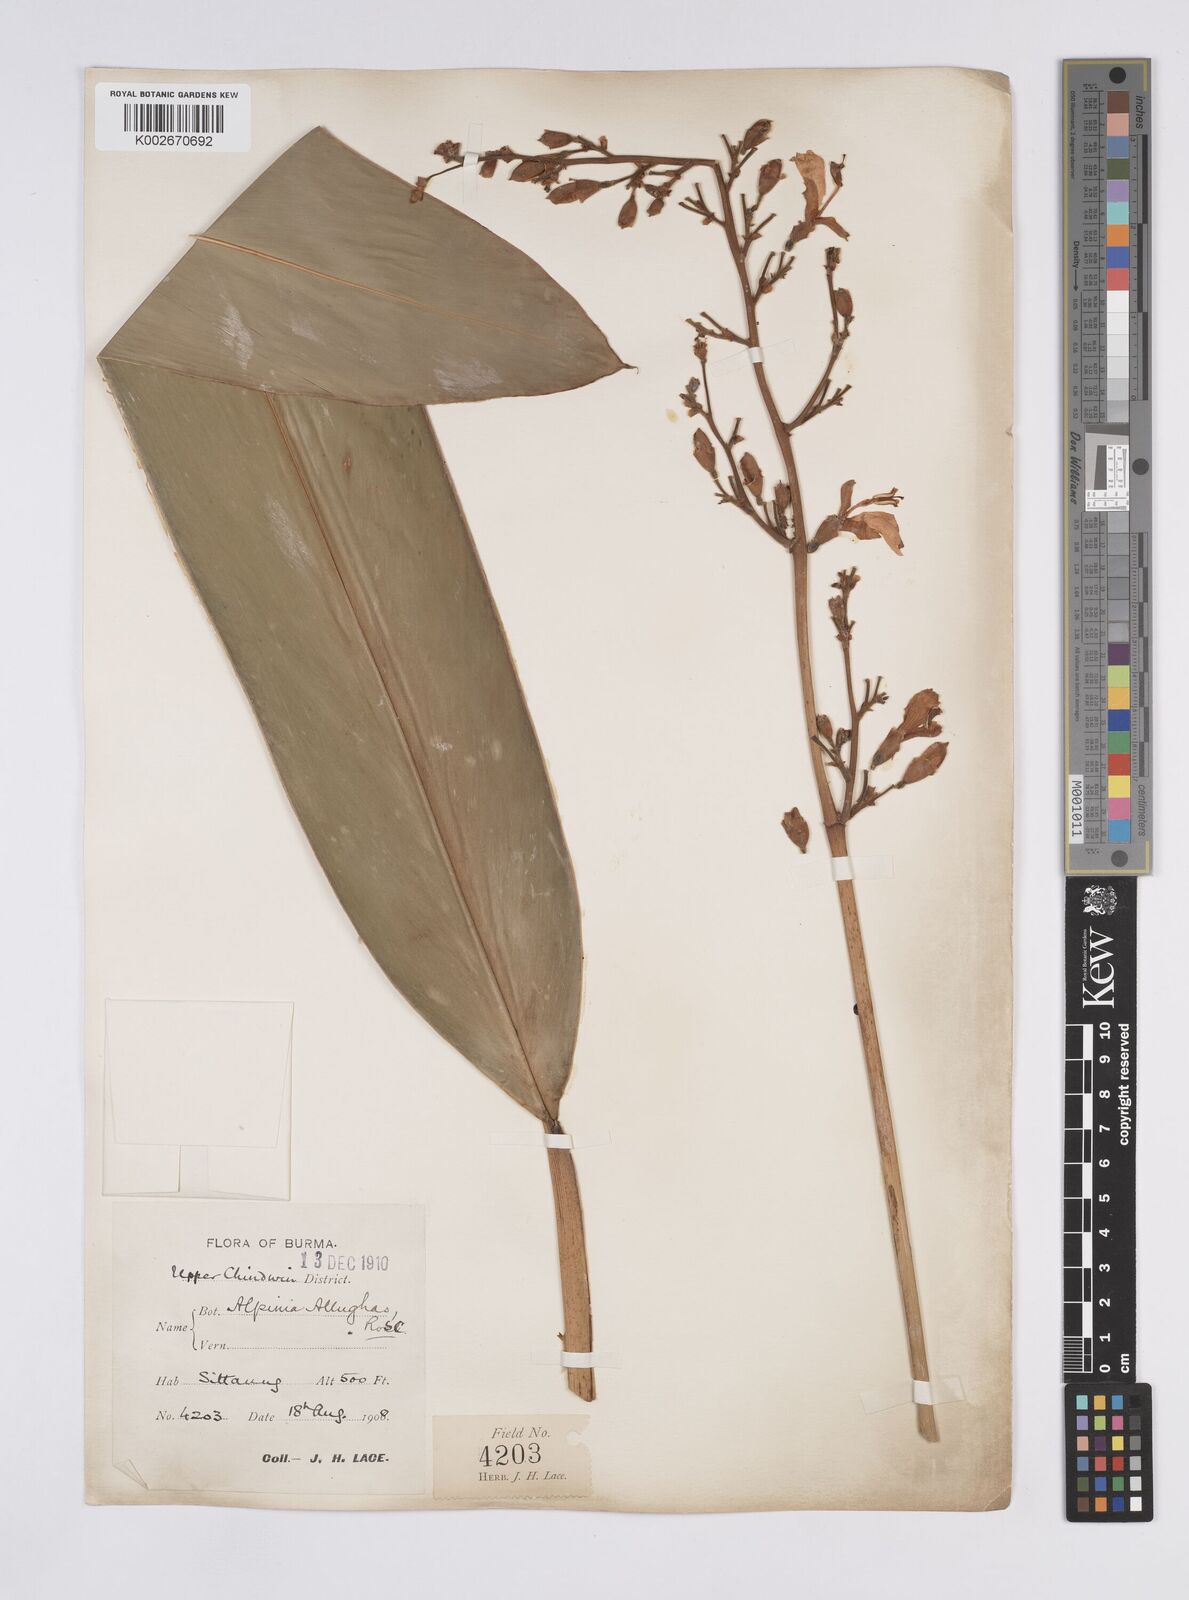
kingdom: Plantae
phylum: Tracheophyta
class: Liliopsida
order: Zingiberales
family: Zingiberaceae
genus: Alpinia
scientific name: Alpinia nigra
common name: Black fruited galanga
